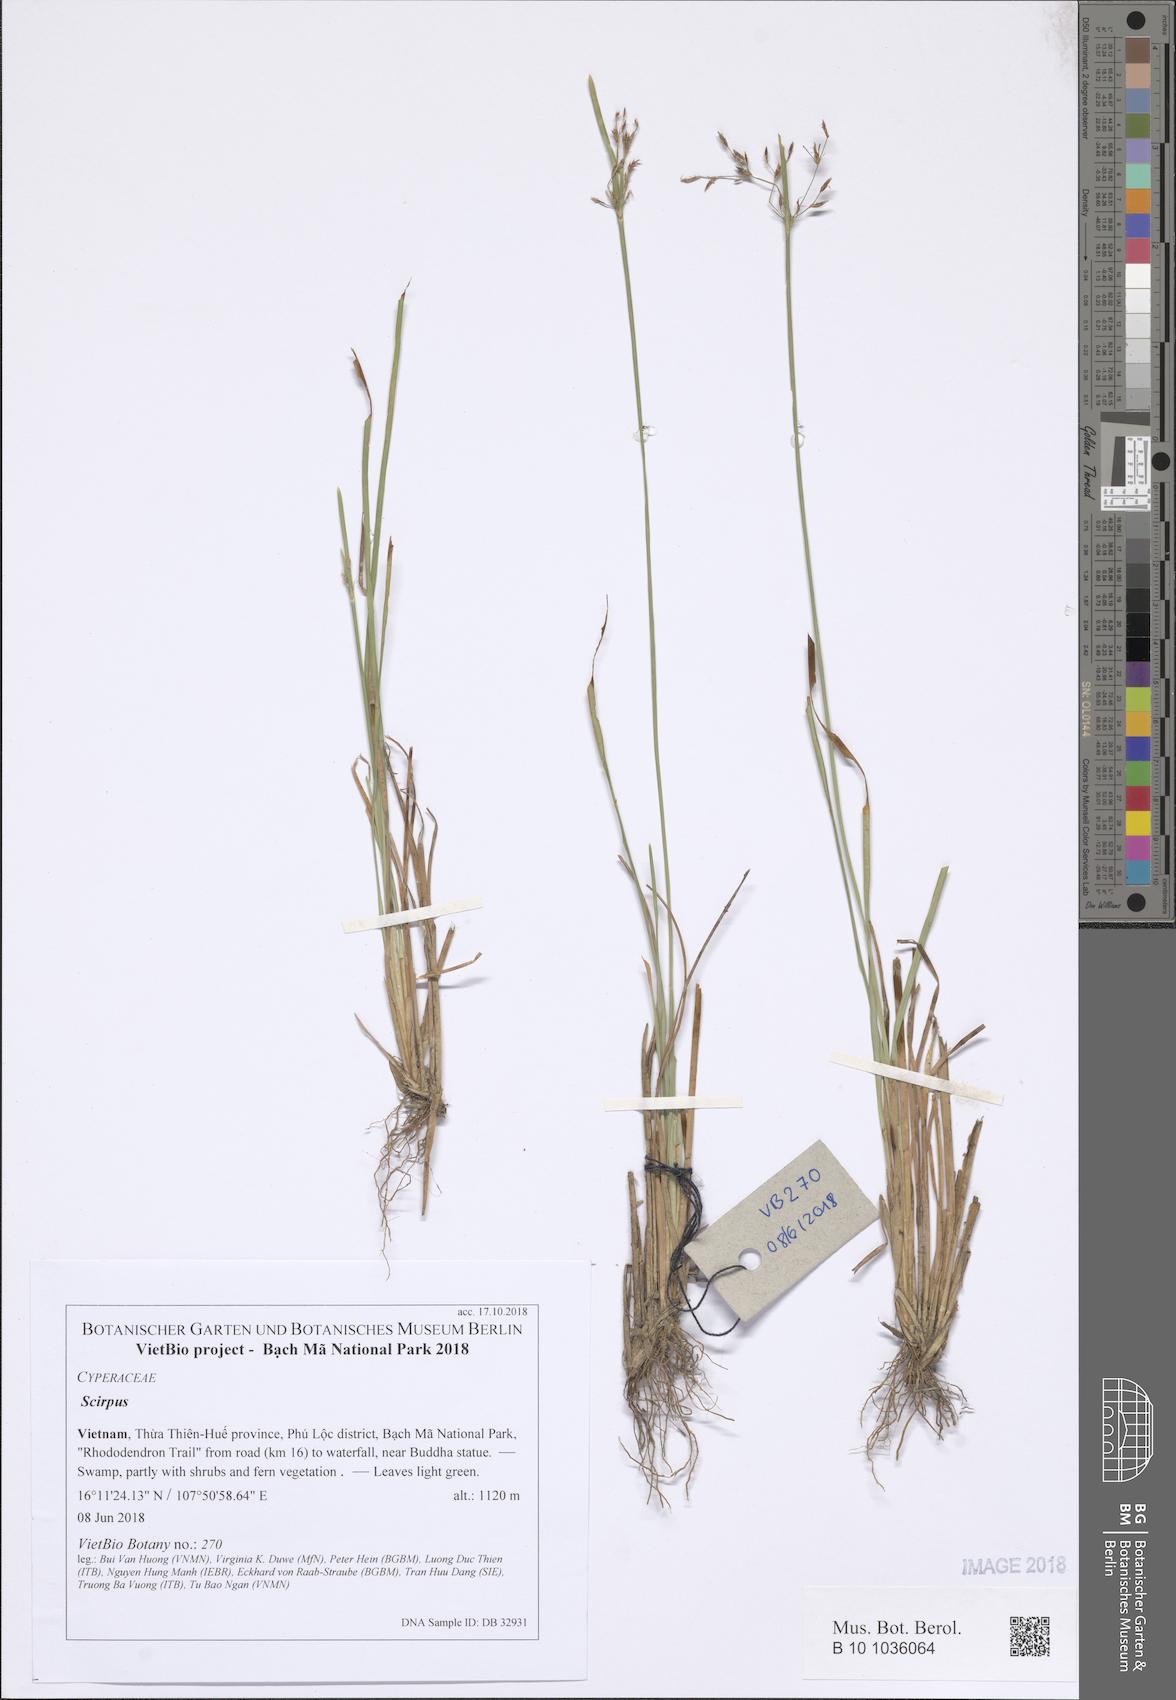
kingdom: Plantae
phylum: Tracheophyta
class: Liliopsida
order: Poales
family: Cyperaceae
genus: Scirpus
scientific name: Scirpus
